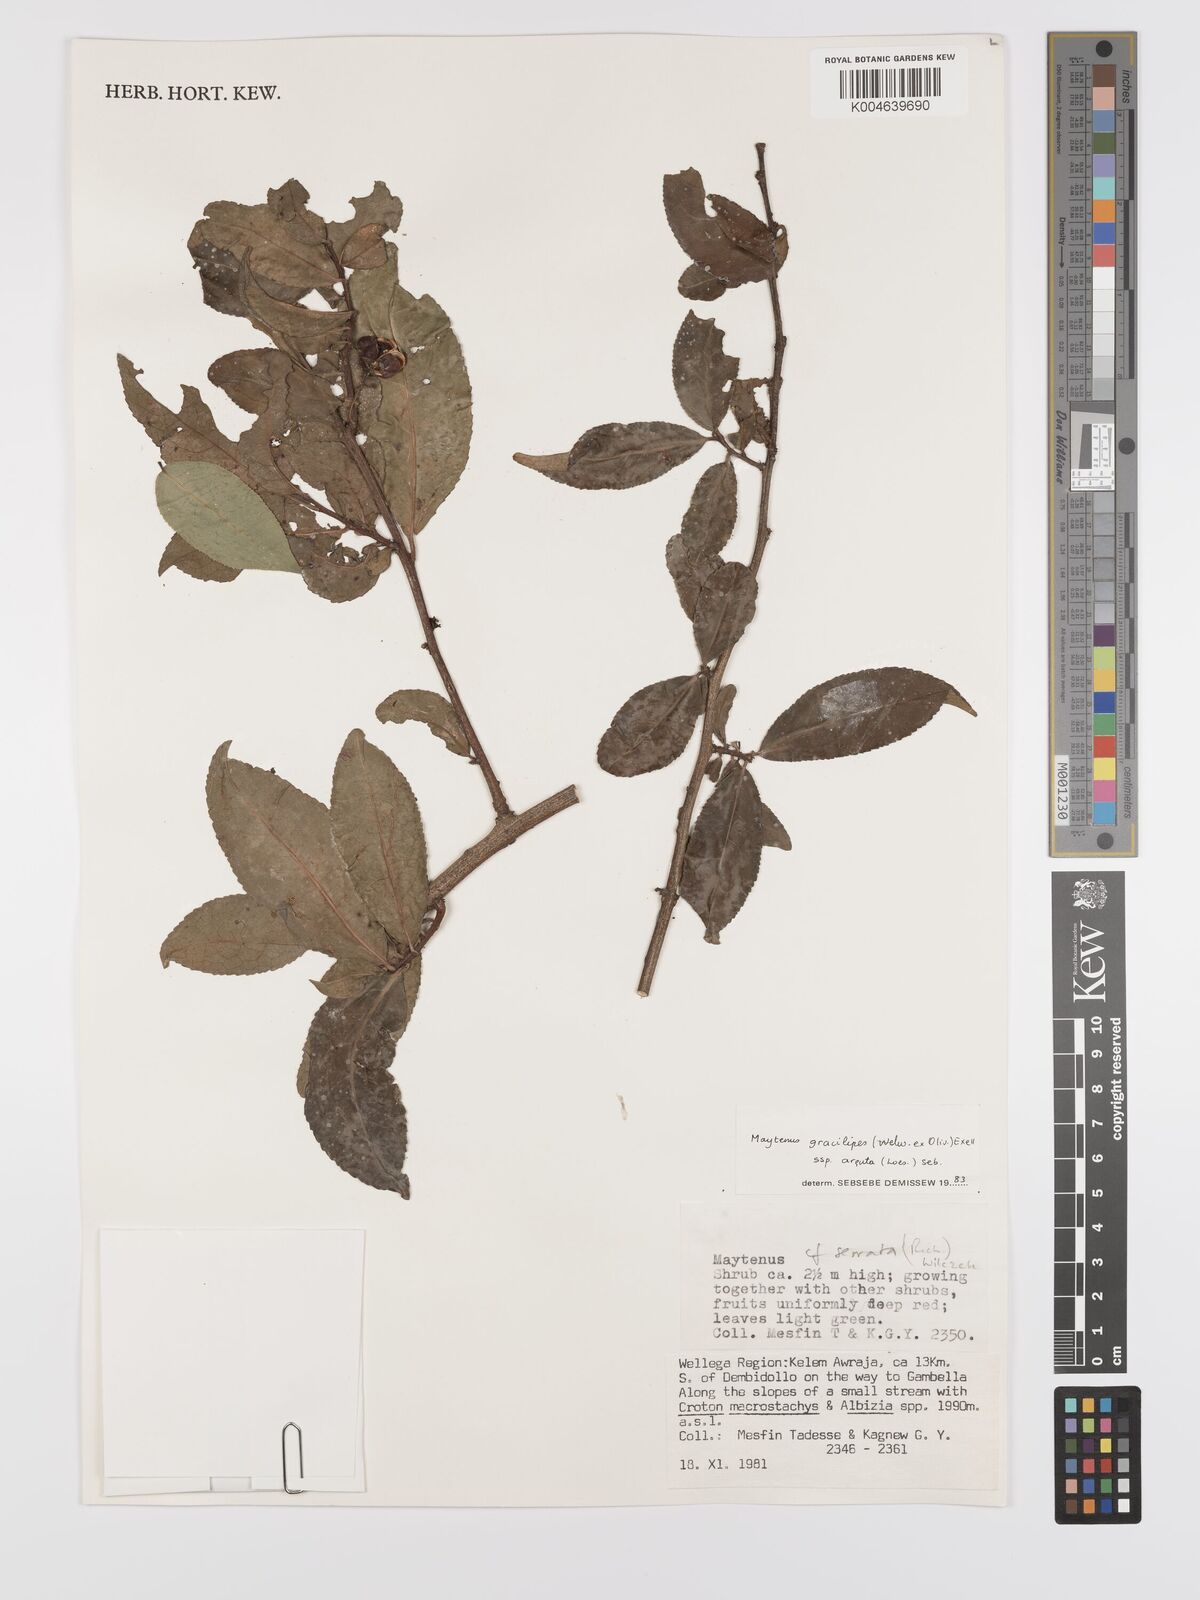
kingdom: Plantae
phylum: Tracheophyta
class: Magnoliopsida
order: Celastrales
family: Celastraceae
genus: Gymnosporia
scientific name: Gymnosporia gracilipes
